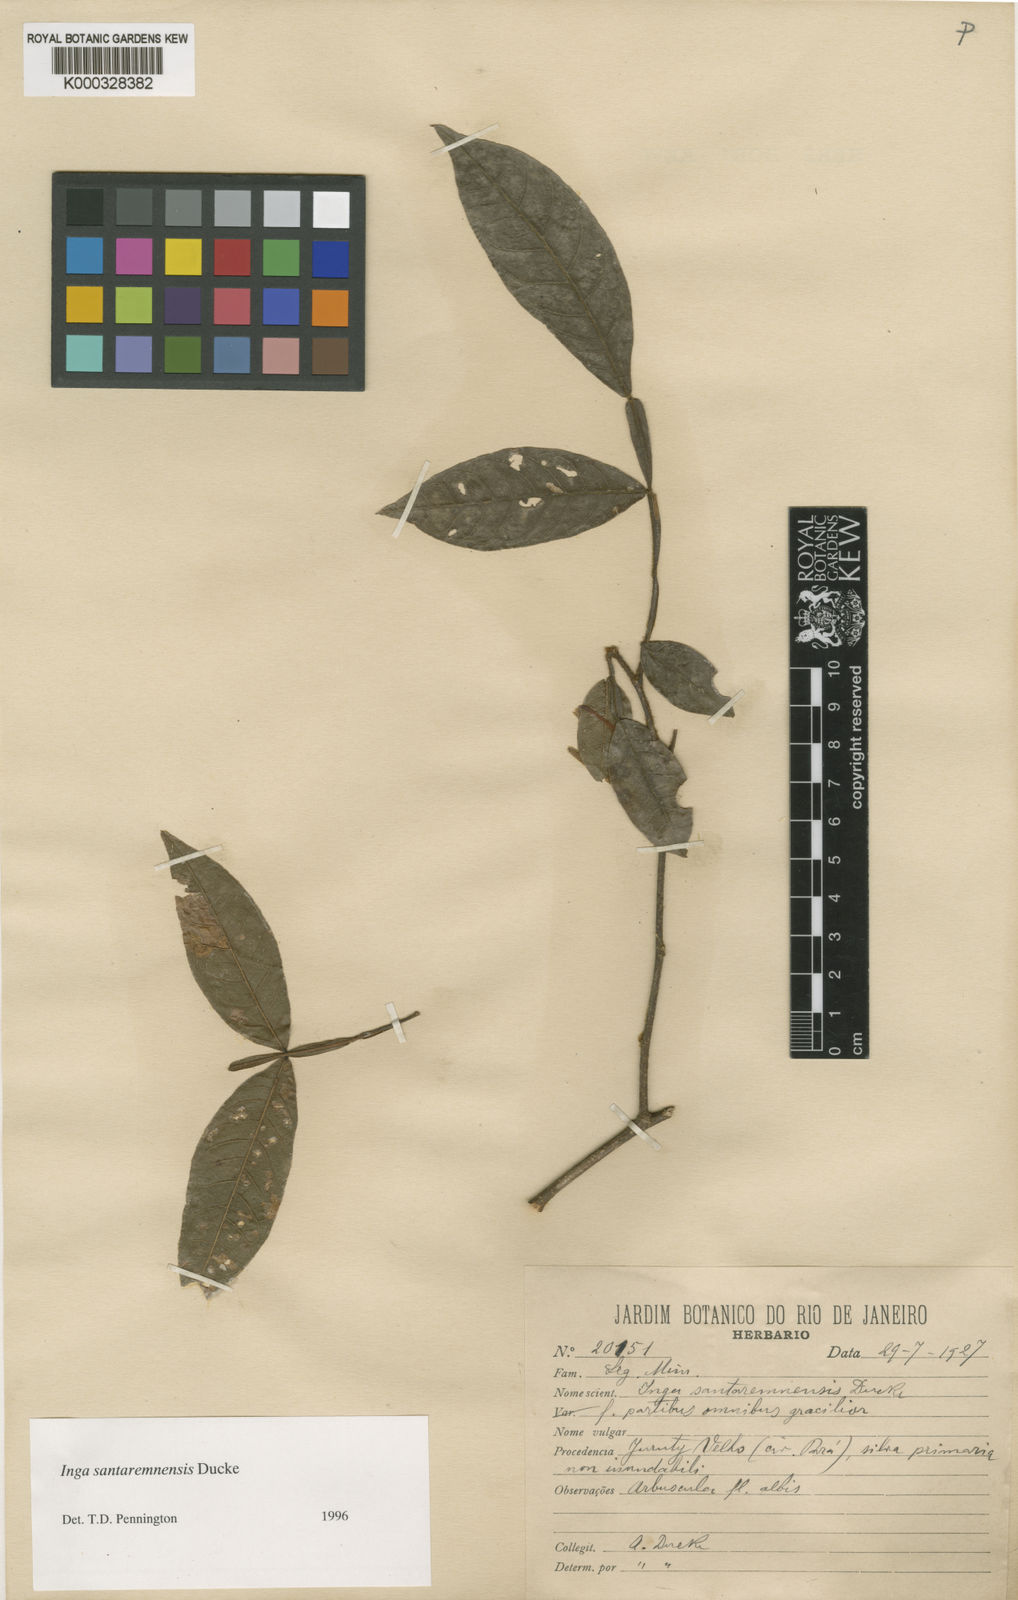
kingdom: Plantae
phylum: Tracheophyta
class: Magnoliopsida
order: Fabales
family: Fabaceae
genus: Inga
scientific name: Inga santaremnensis
